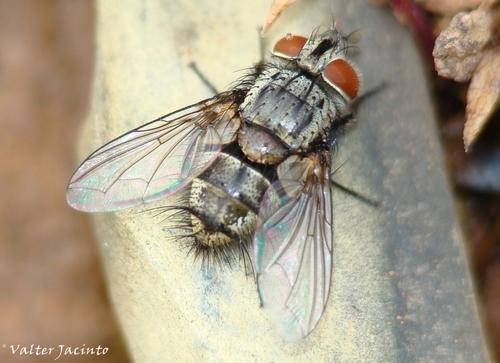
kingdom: Animalia
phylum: Arthropoda
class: Insecta
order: Diptera
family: Tachinidae
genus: Senometopia
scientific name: Senometopia susurrans
